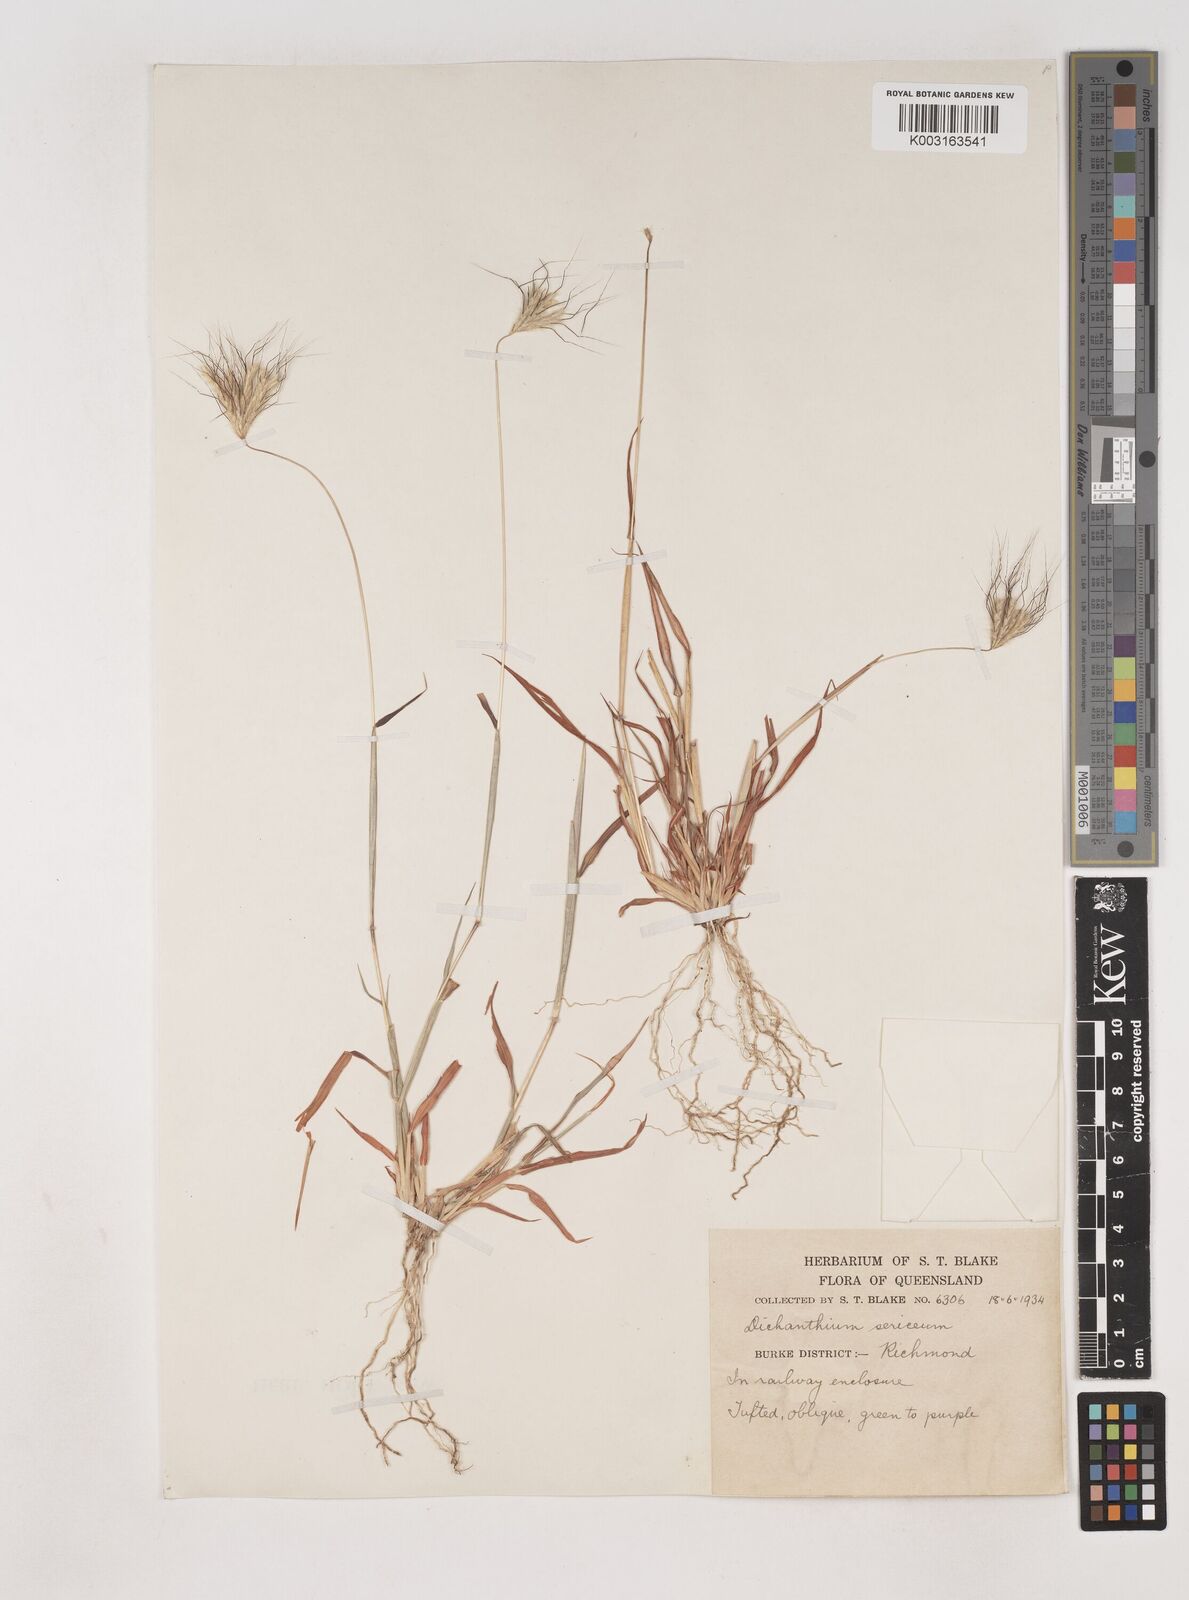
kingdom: Plantae
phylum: Tracheophyta
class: Liliopsida
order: Poales
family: Poaceae
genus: Dichanthium
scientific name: Dichanthium sericeum
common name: Silky bluestem
